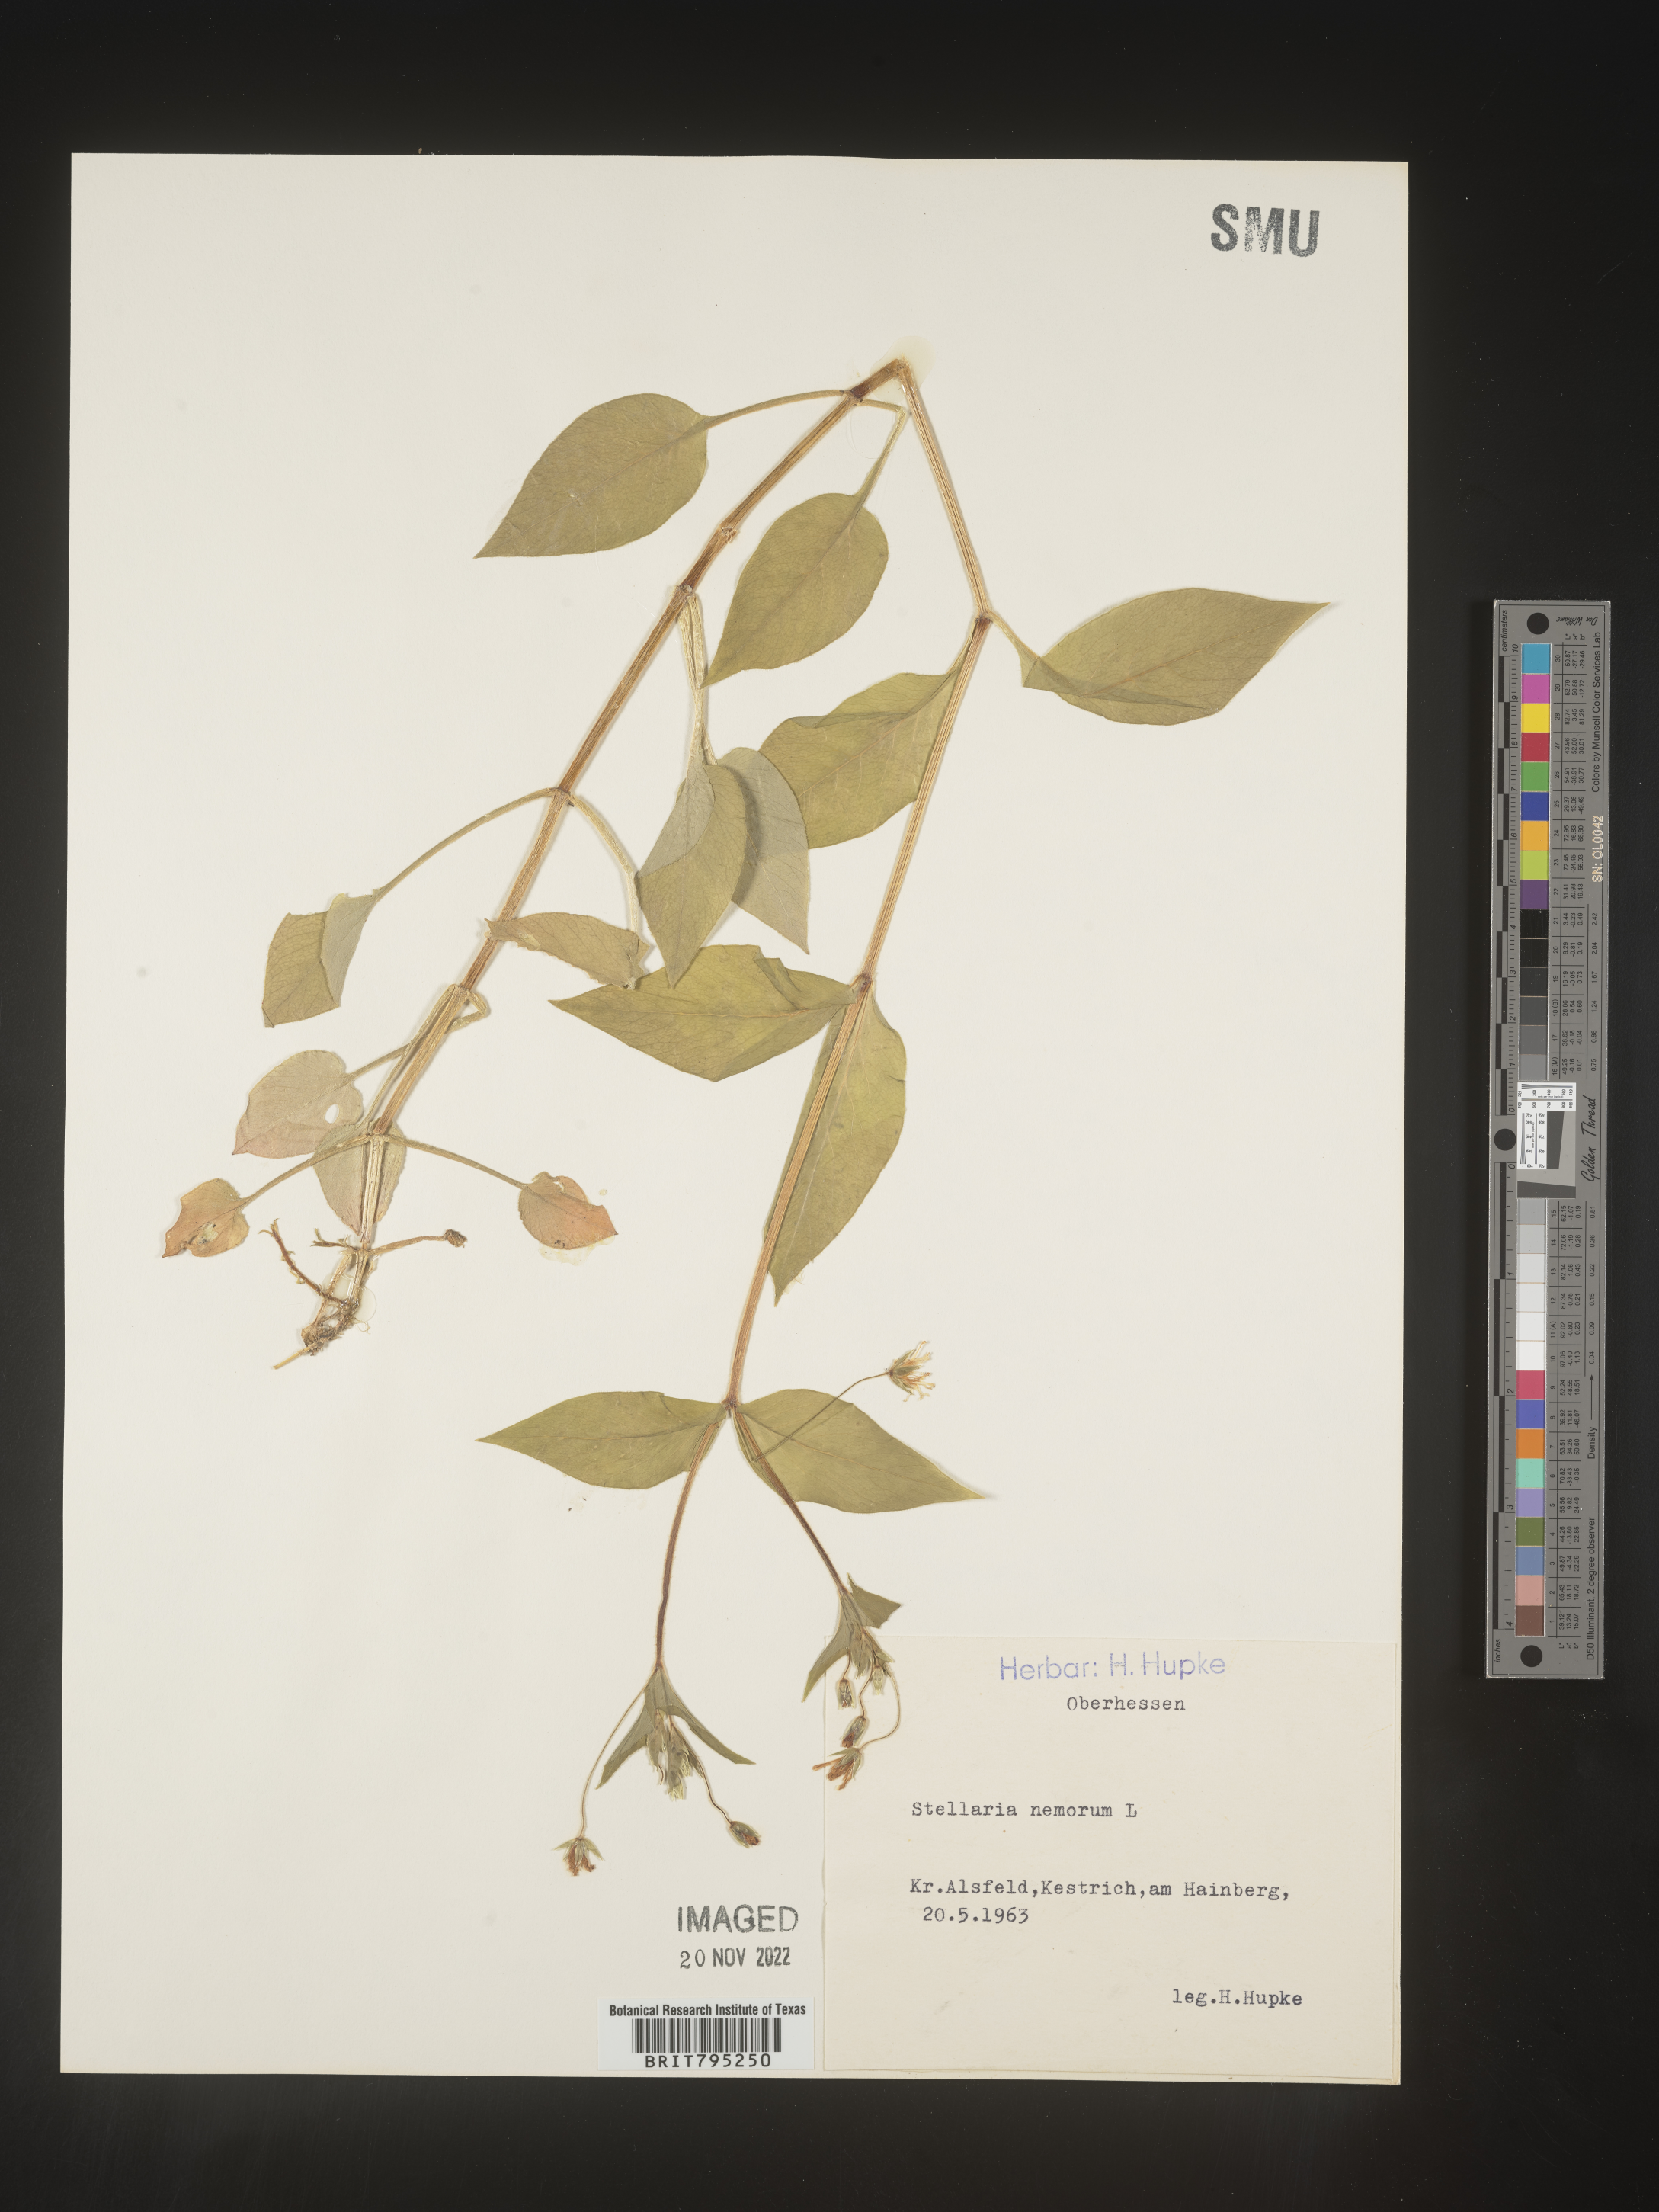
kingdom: Plantae
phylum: Tracheophyta
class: Magnoliopsida
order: Caryophyllales
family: Caryophyllaceae
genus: Stellaria
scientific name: Stellaria
